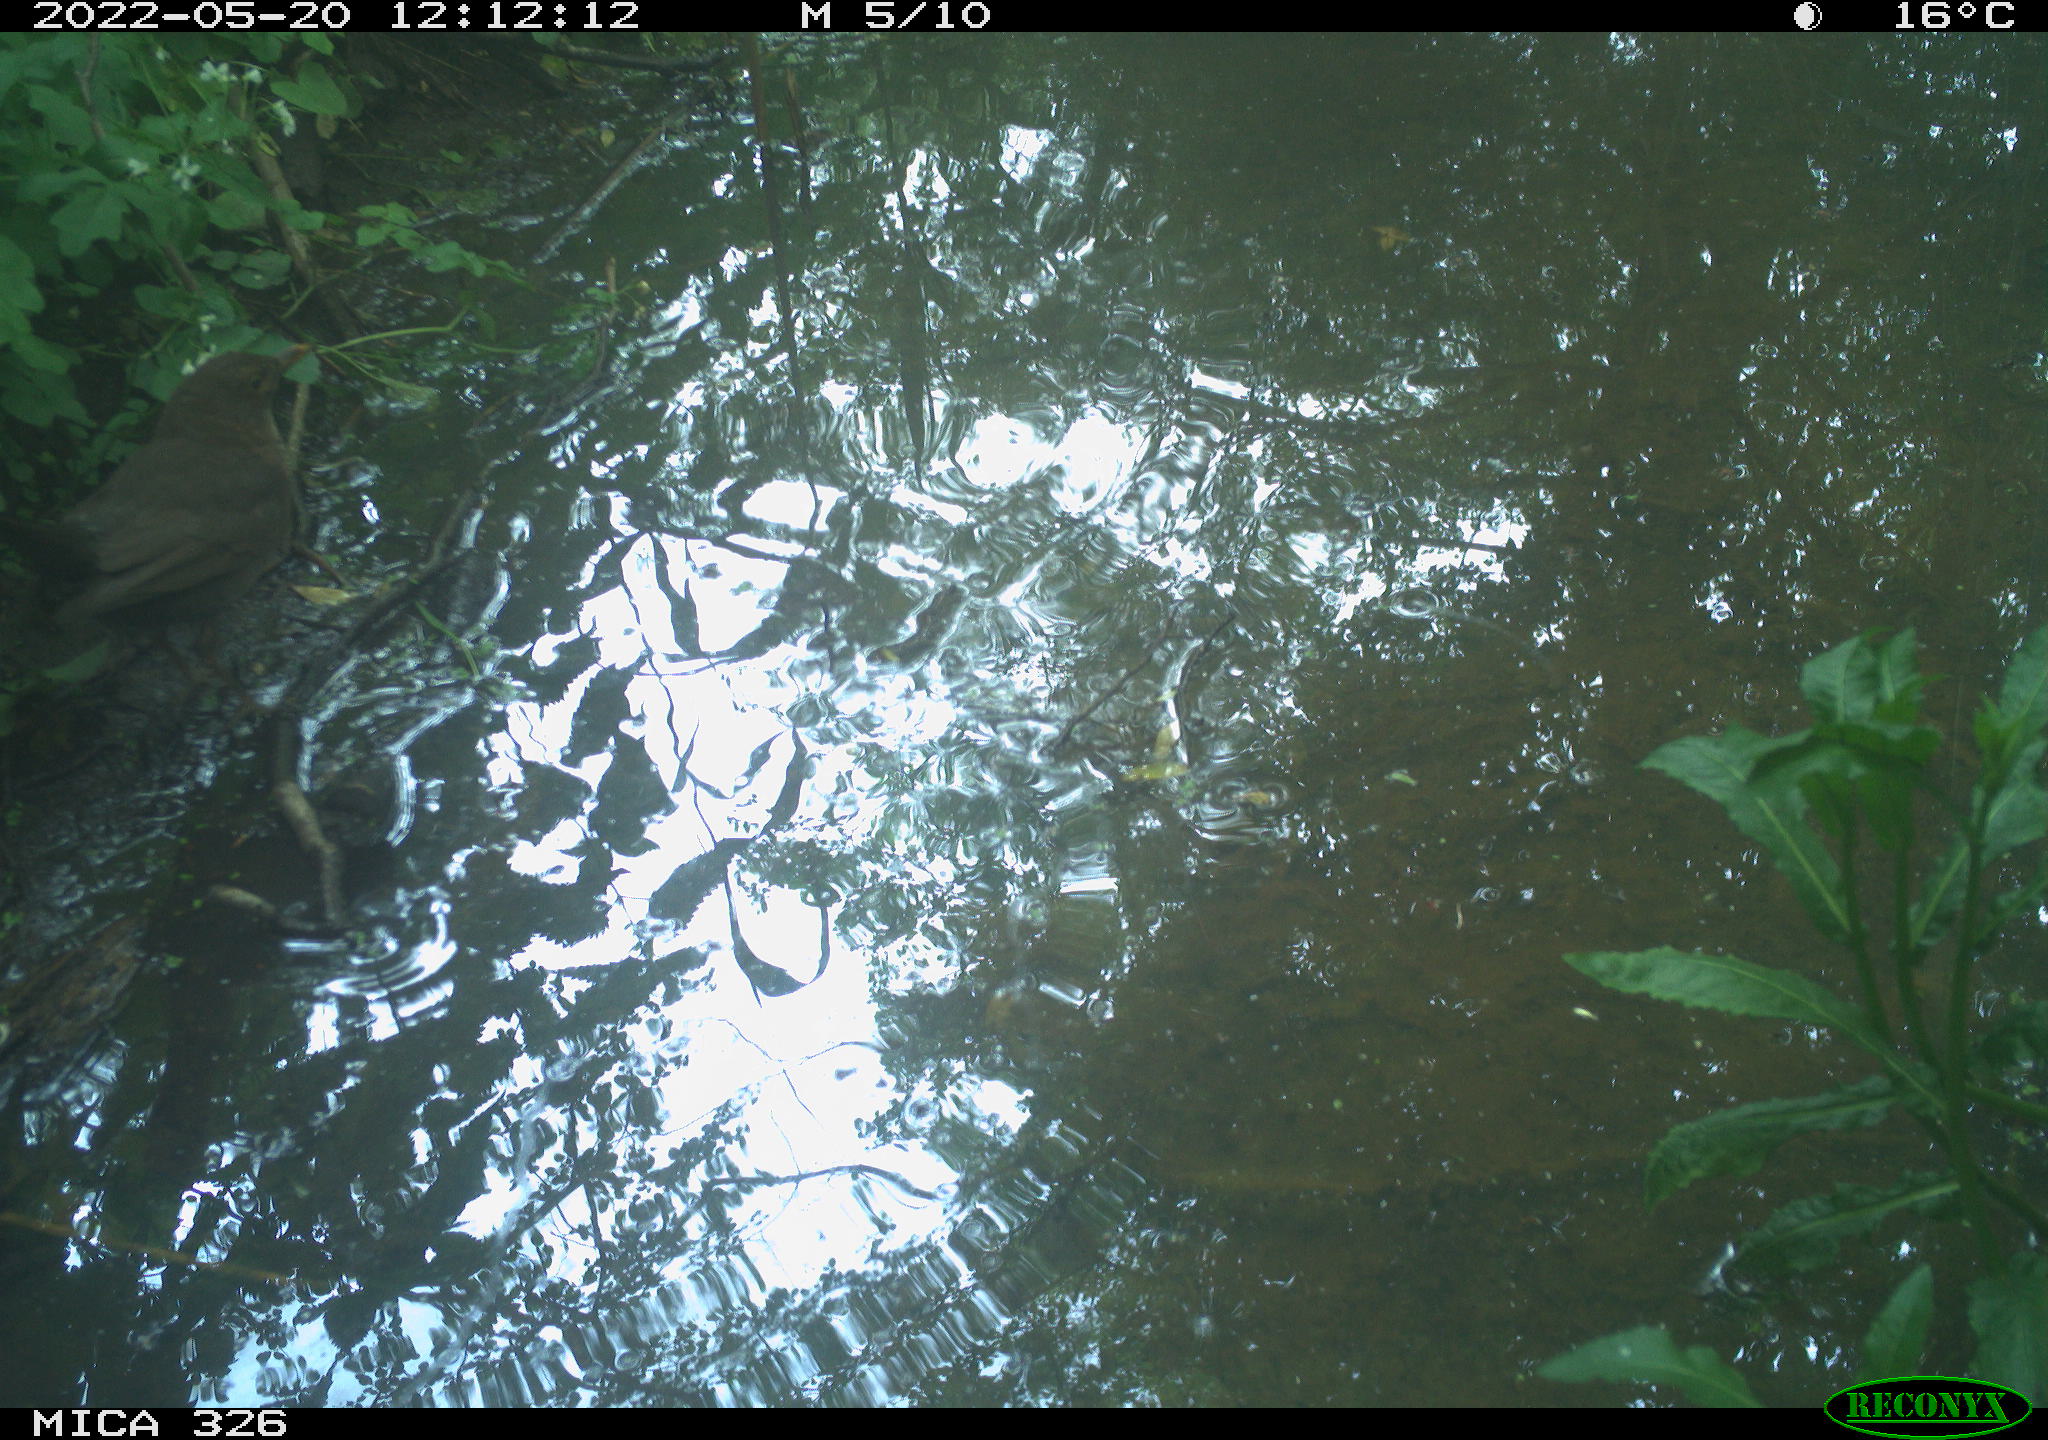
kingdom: Animalia
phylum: Chordata
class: Aves
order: Passeriformes
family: Turdidae
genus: Turdus
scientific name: Turdus merula
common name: Common blackbird
